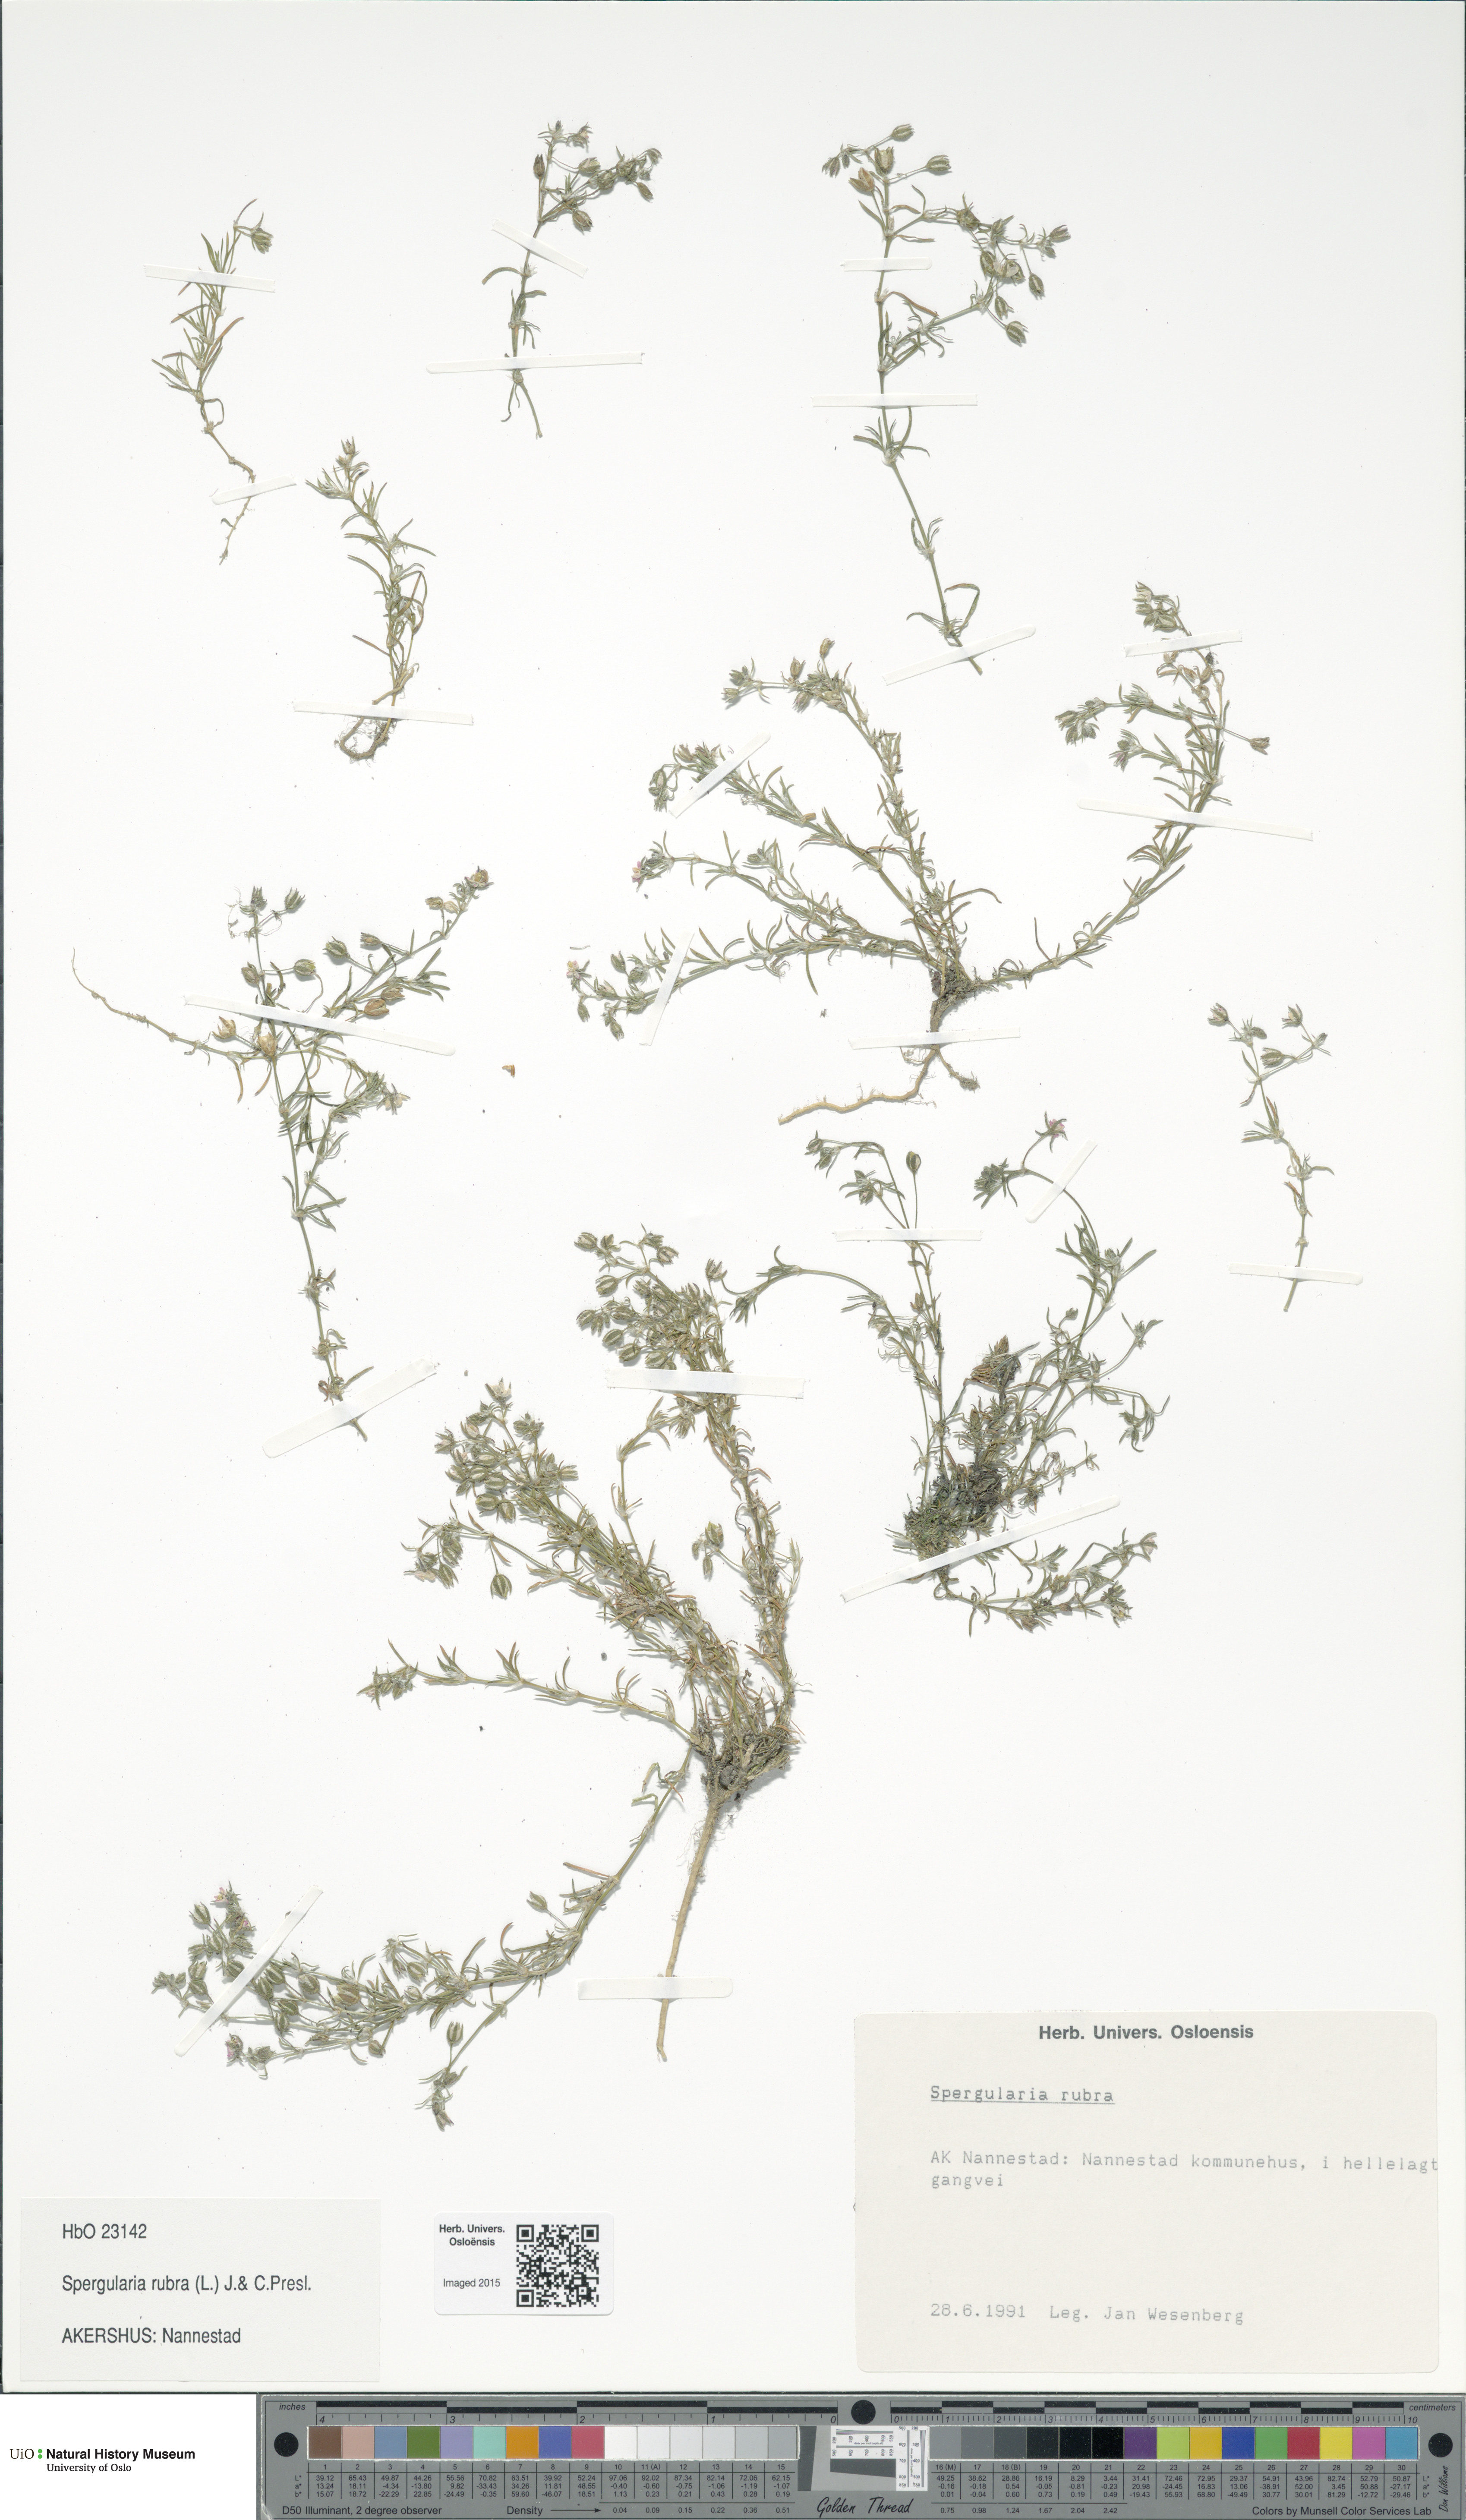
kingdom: Plantae
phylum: Tracheophyta
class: Magnoliopsida
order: Caryophyllales
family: Caryophyllaceae
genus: Spergularia
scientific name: Spergularia rubra
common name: Red sand-spurrey
